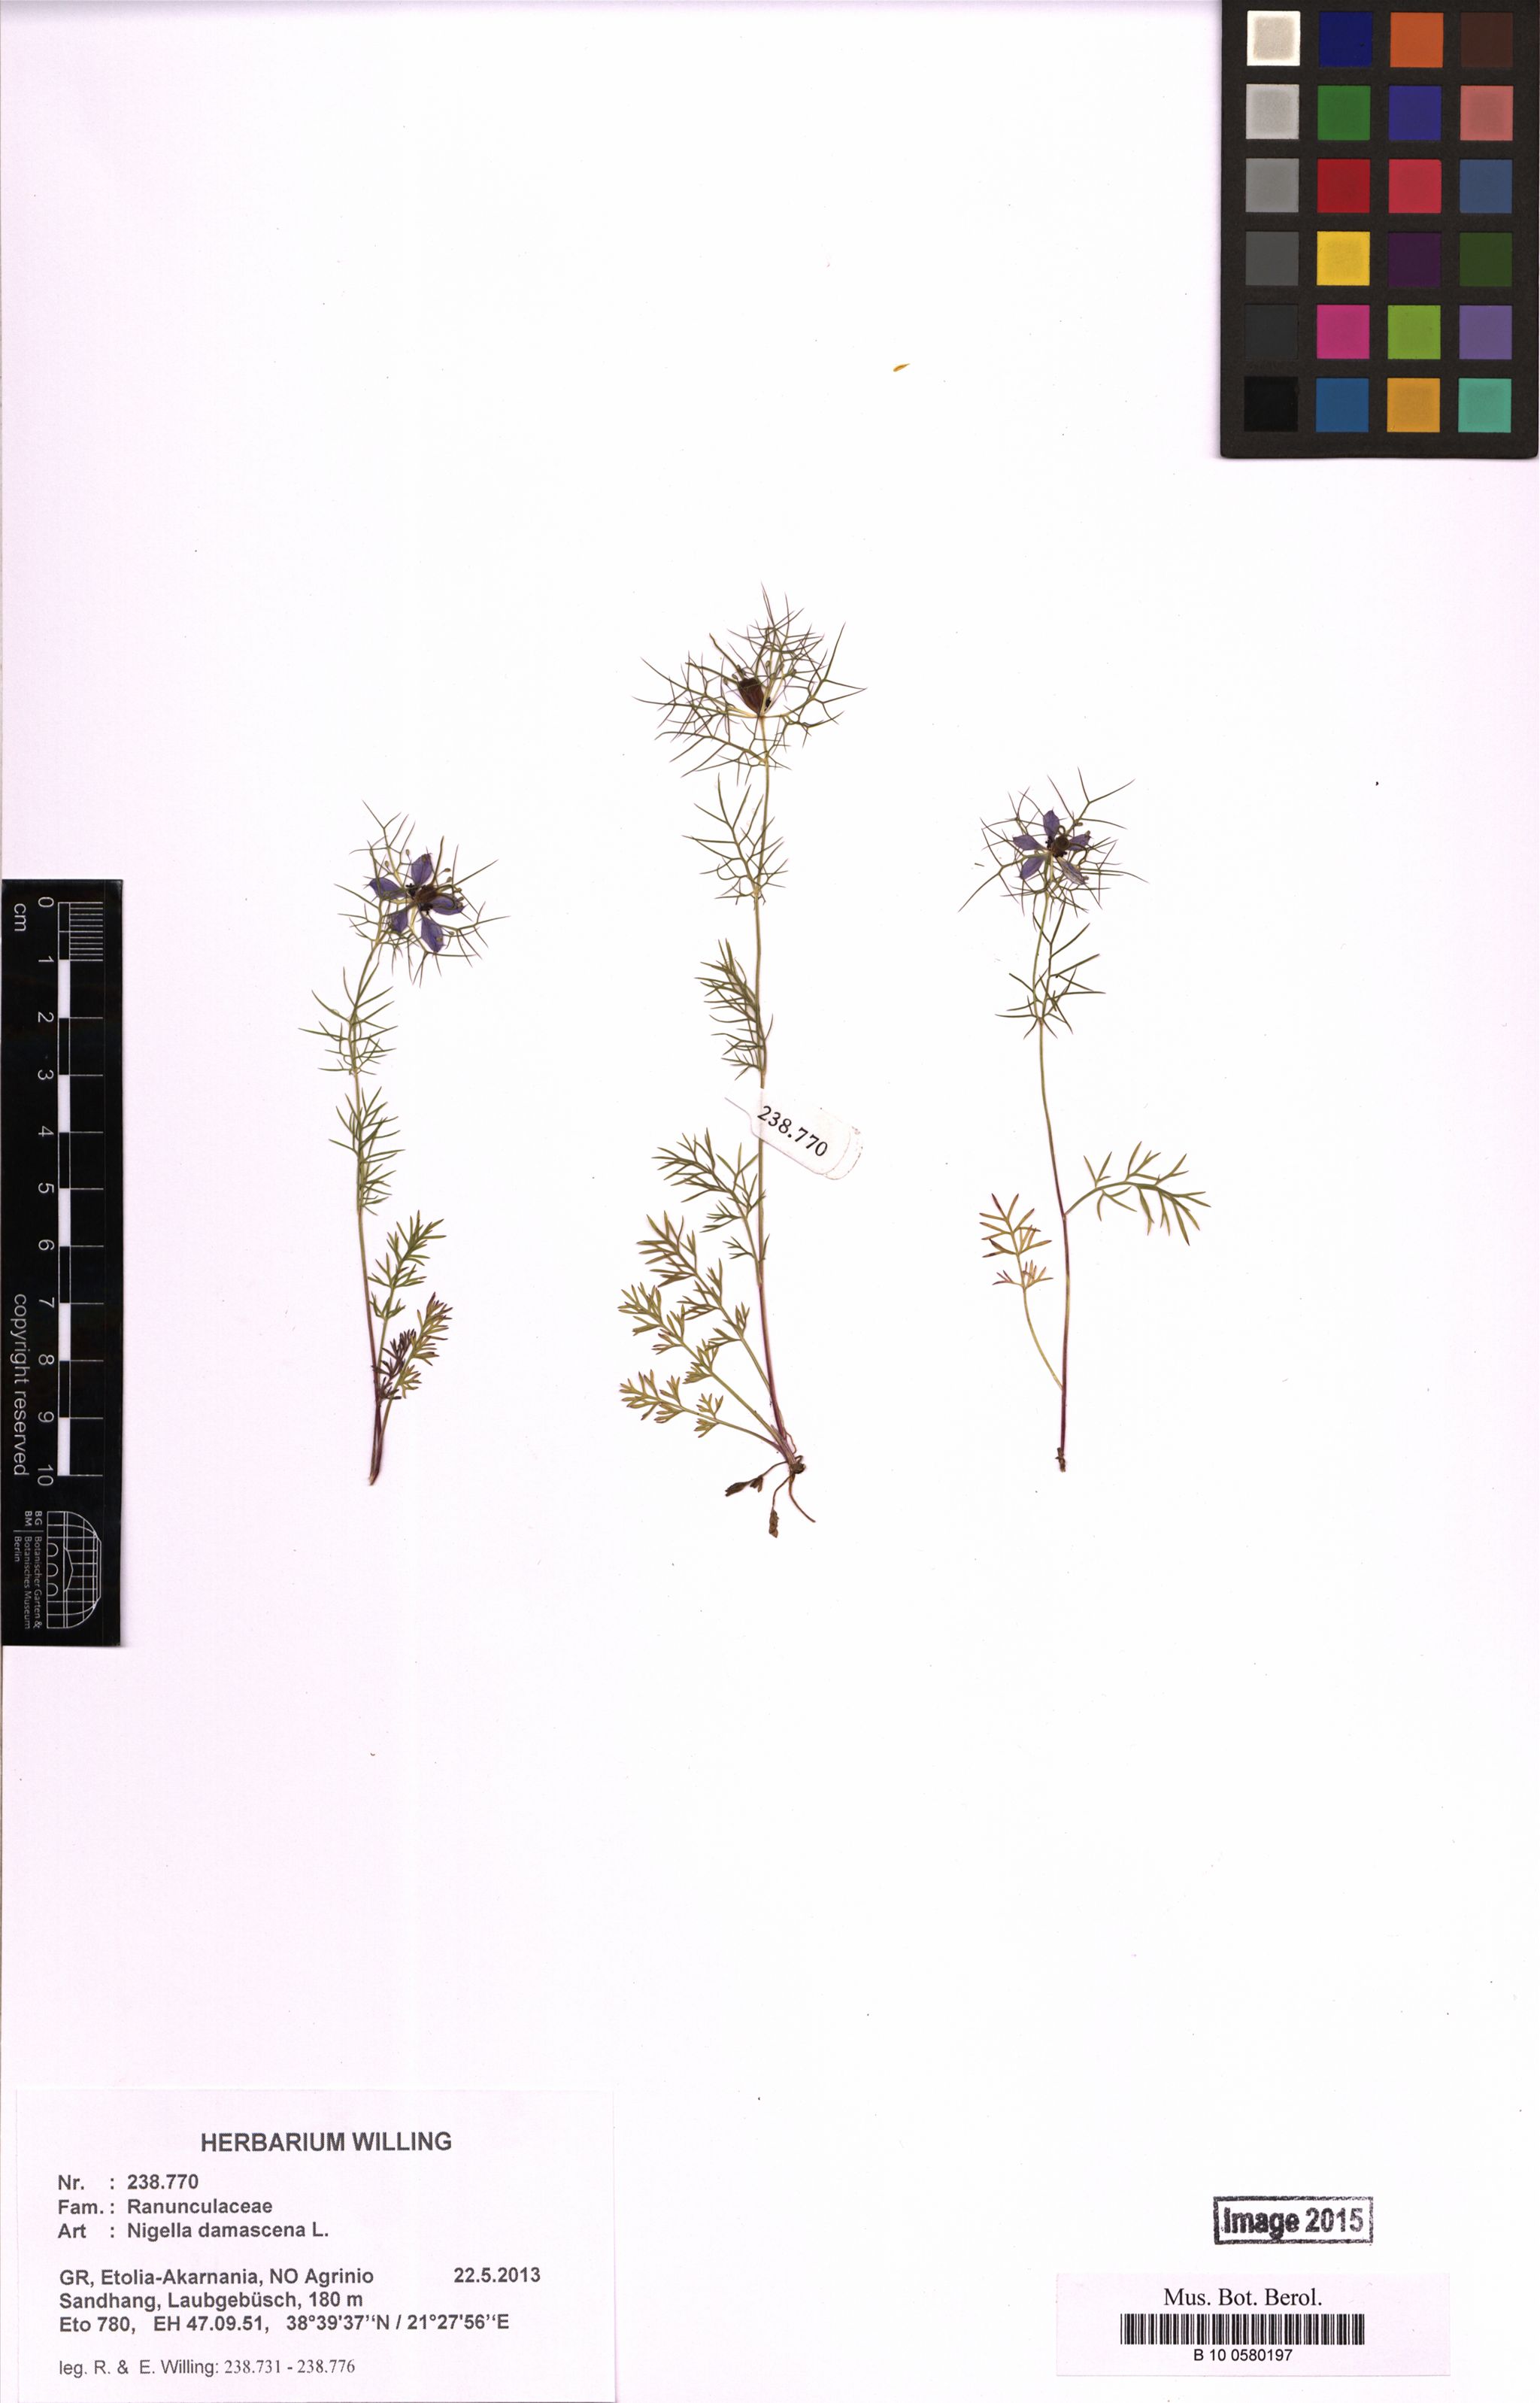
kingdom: Plantae
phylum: Tracheophyta
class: Magnoliopsida
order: Ranunculales
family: Ranunculaceae
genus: Nigella
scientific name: Nigella damascena
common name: Love-in-a-mist
